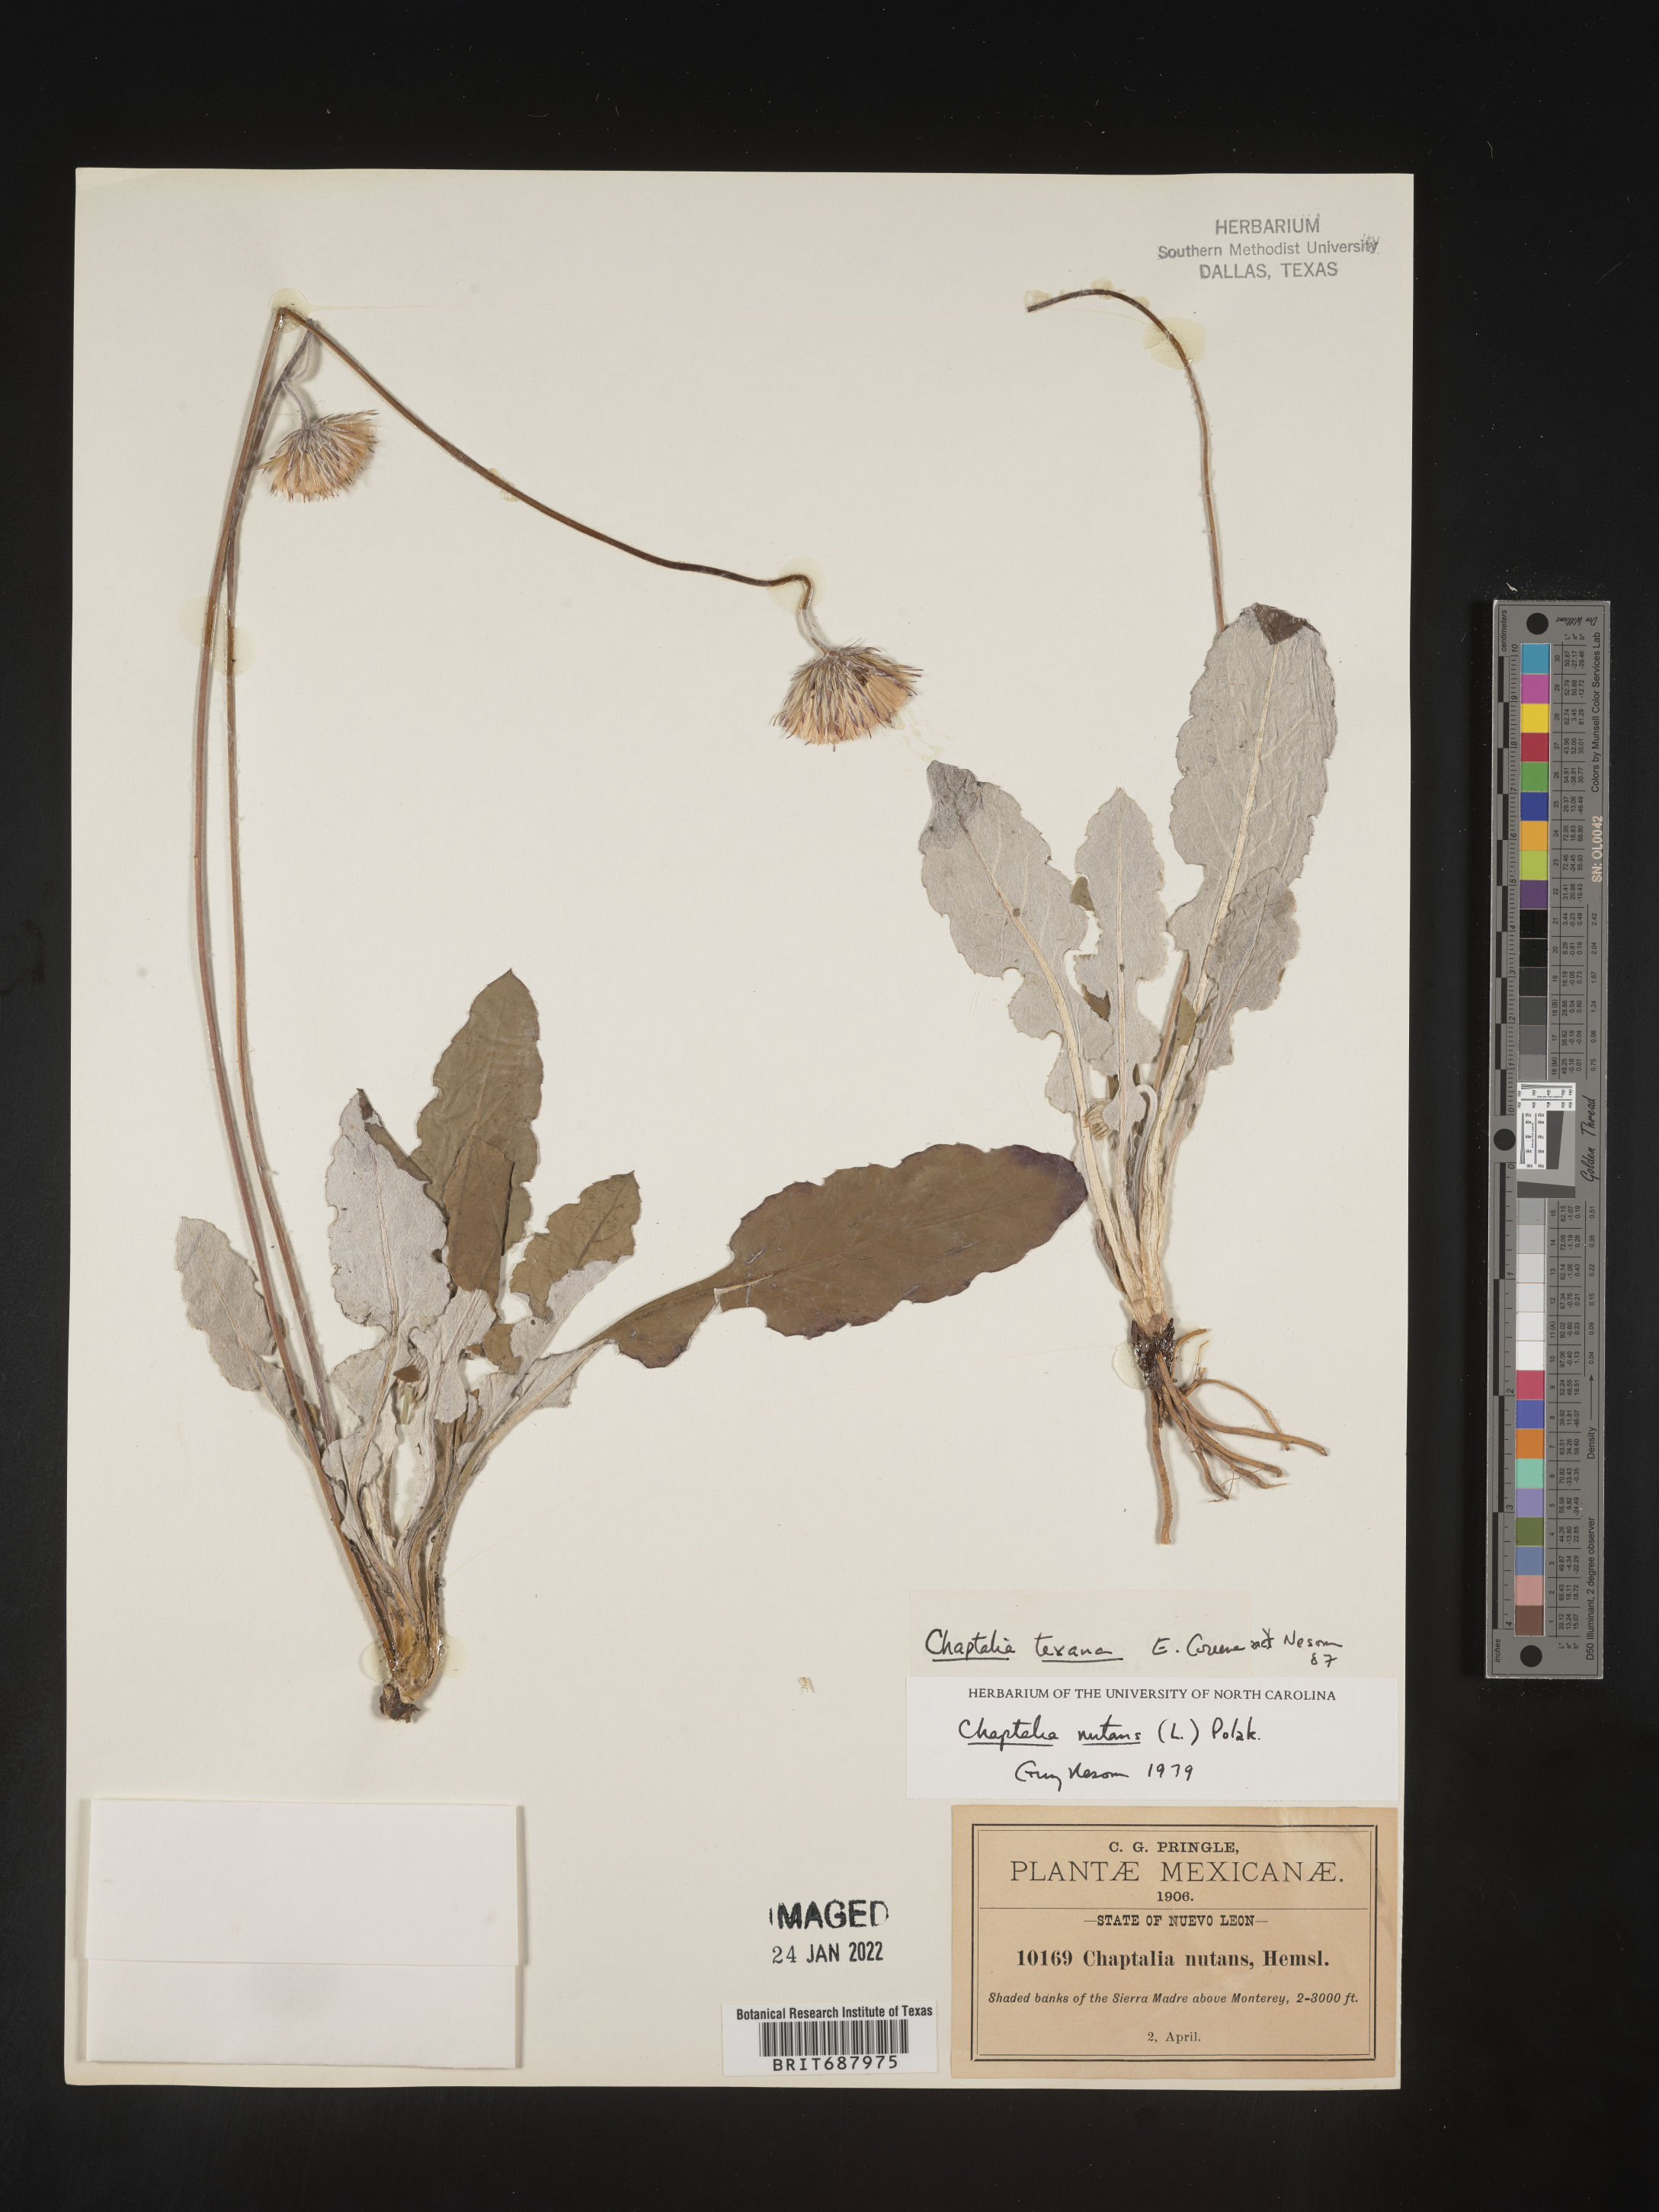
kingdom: Plantae
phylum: Tracheophyta
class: Magnoliopsida
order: Asterales
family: Asteraceae
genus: Chaptalia
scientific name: Chaptalia
